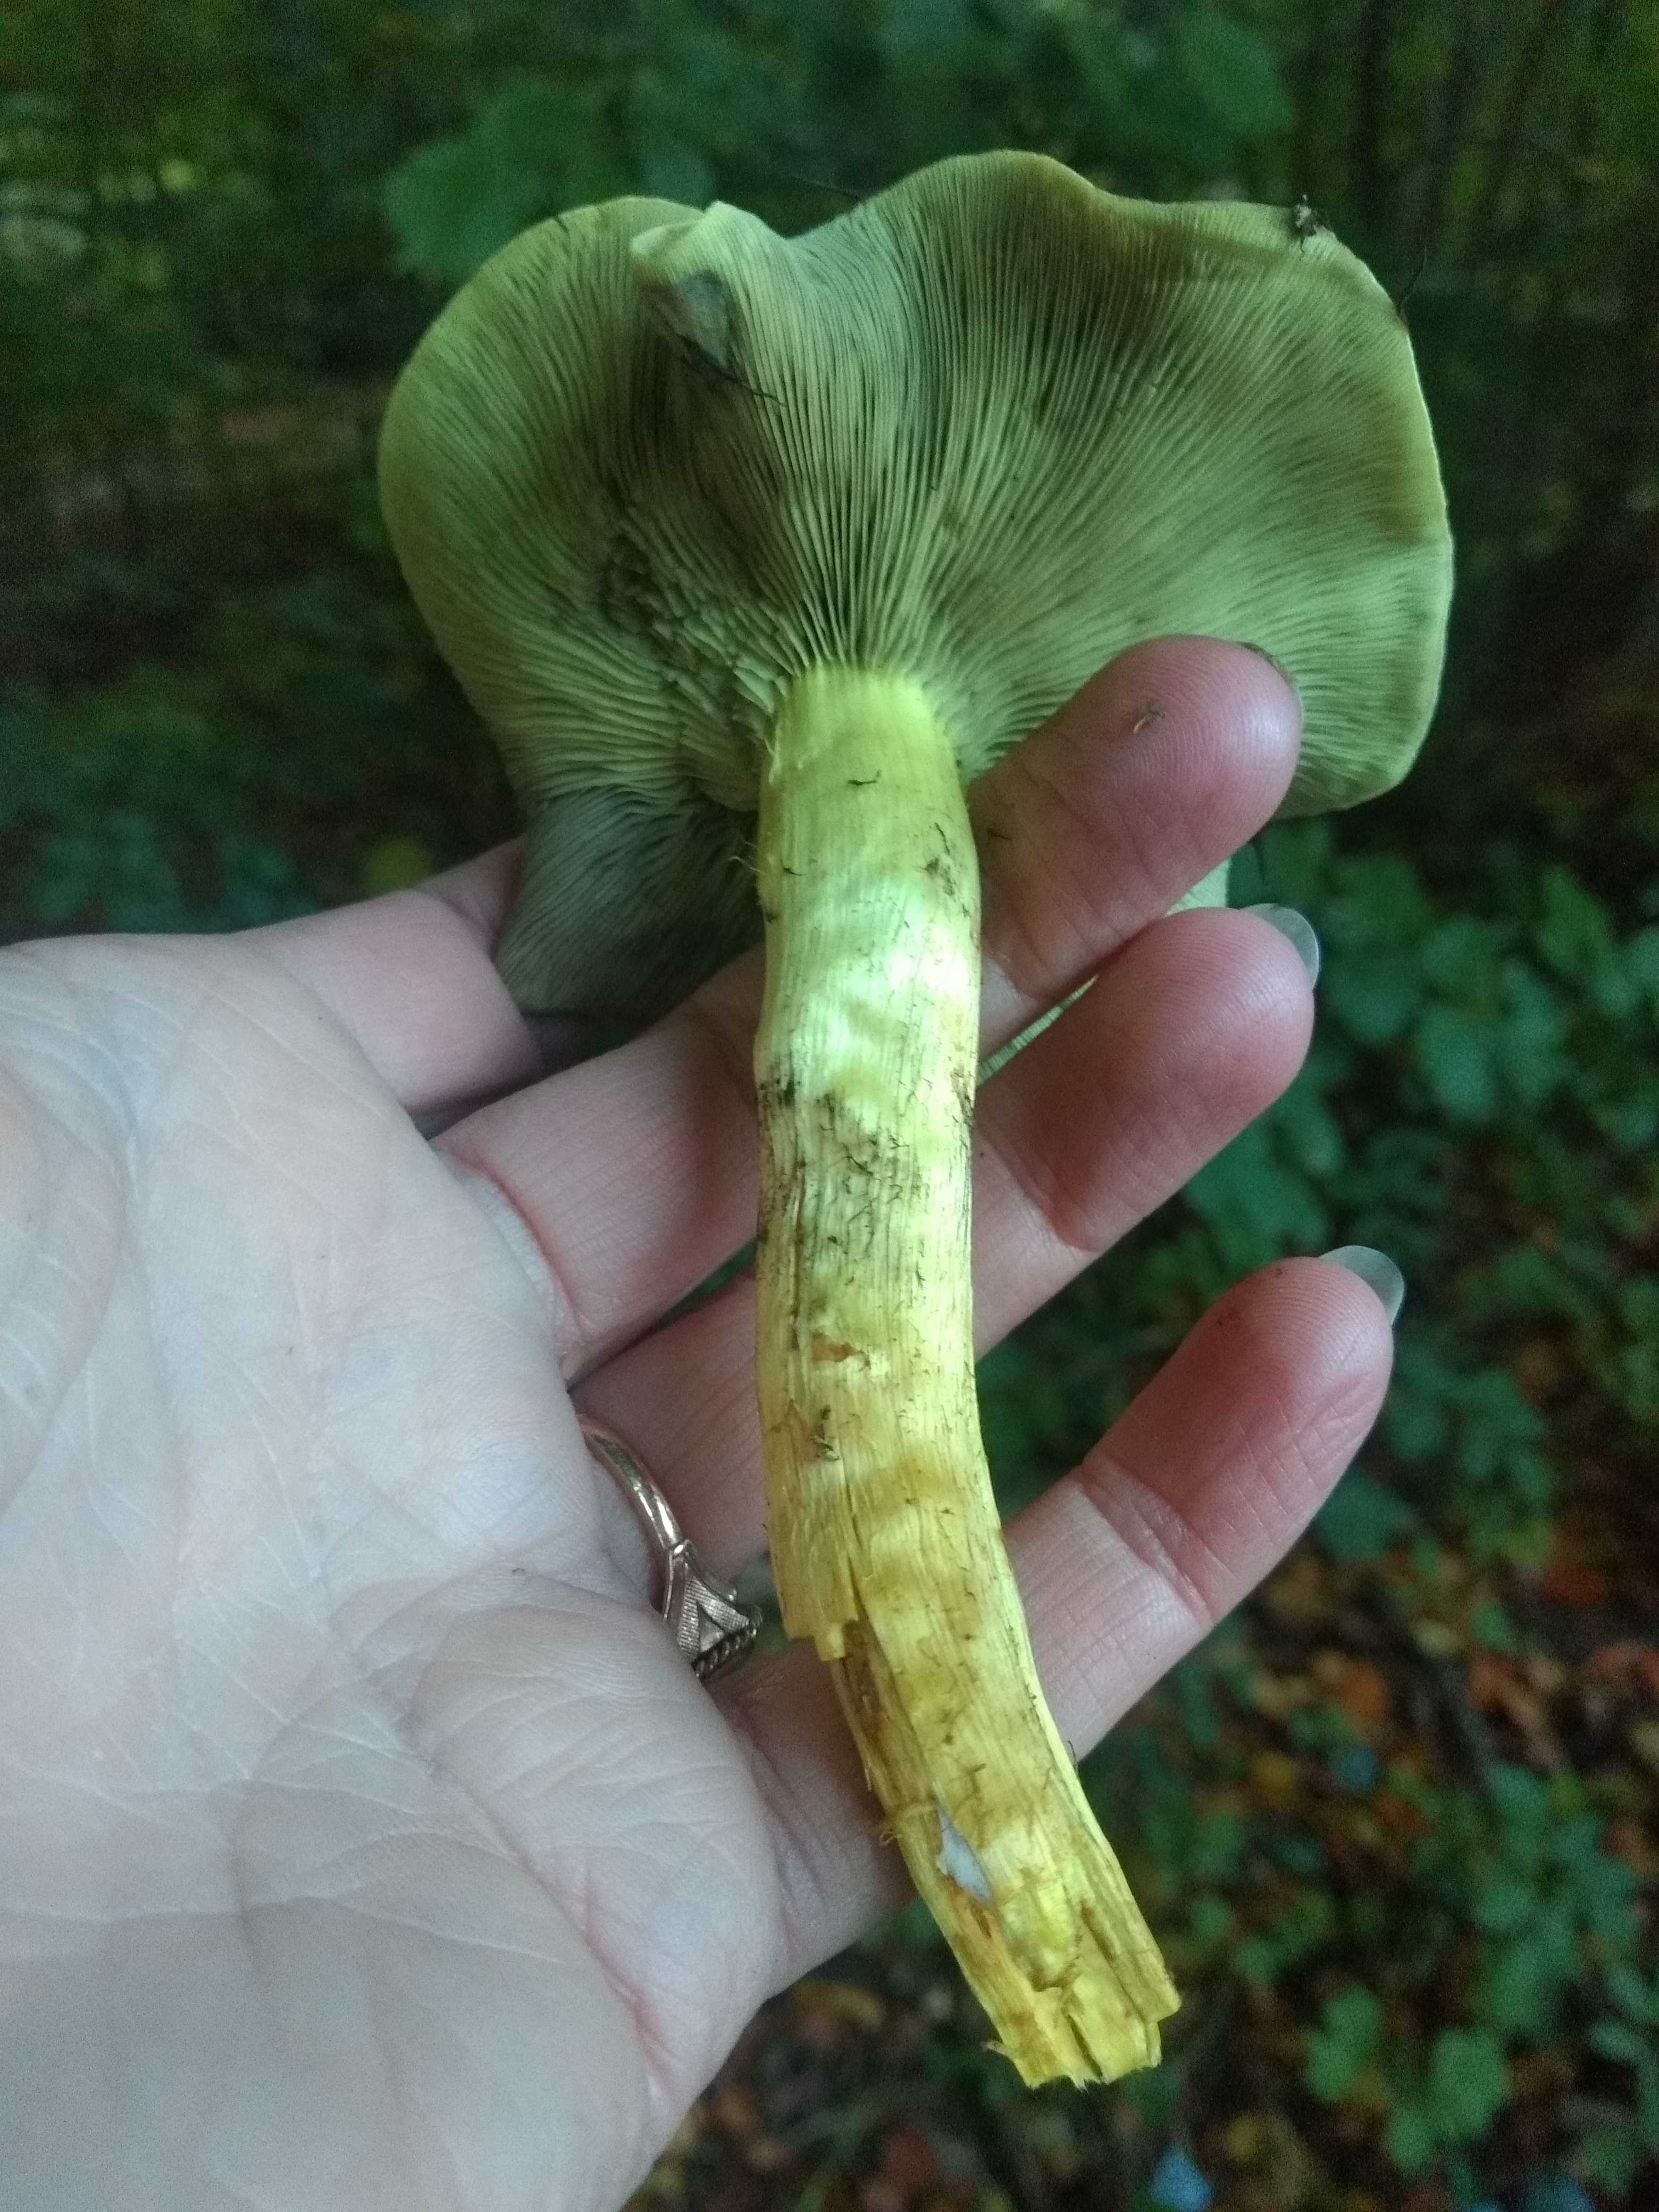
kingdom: Fungi
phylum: Basidiomycota
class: Agaricomycetes
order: Agaricales
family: Strophariaceae
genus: Hypholoma
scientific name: Hypholoma fasciculare
